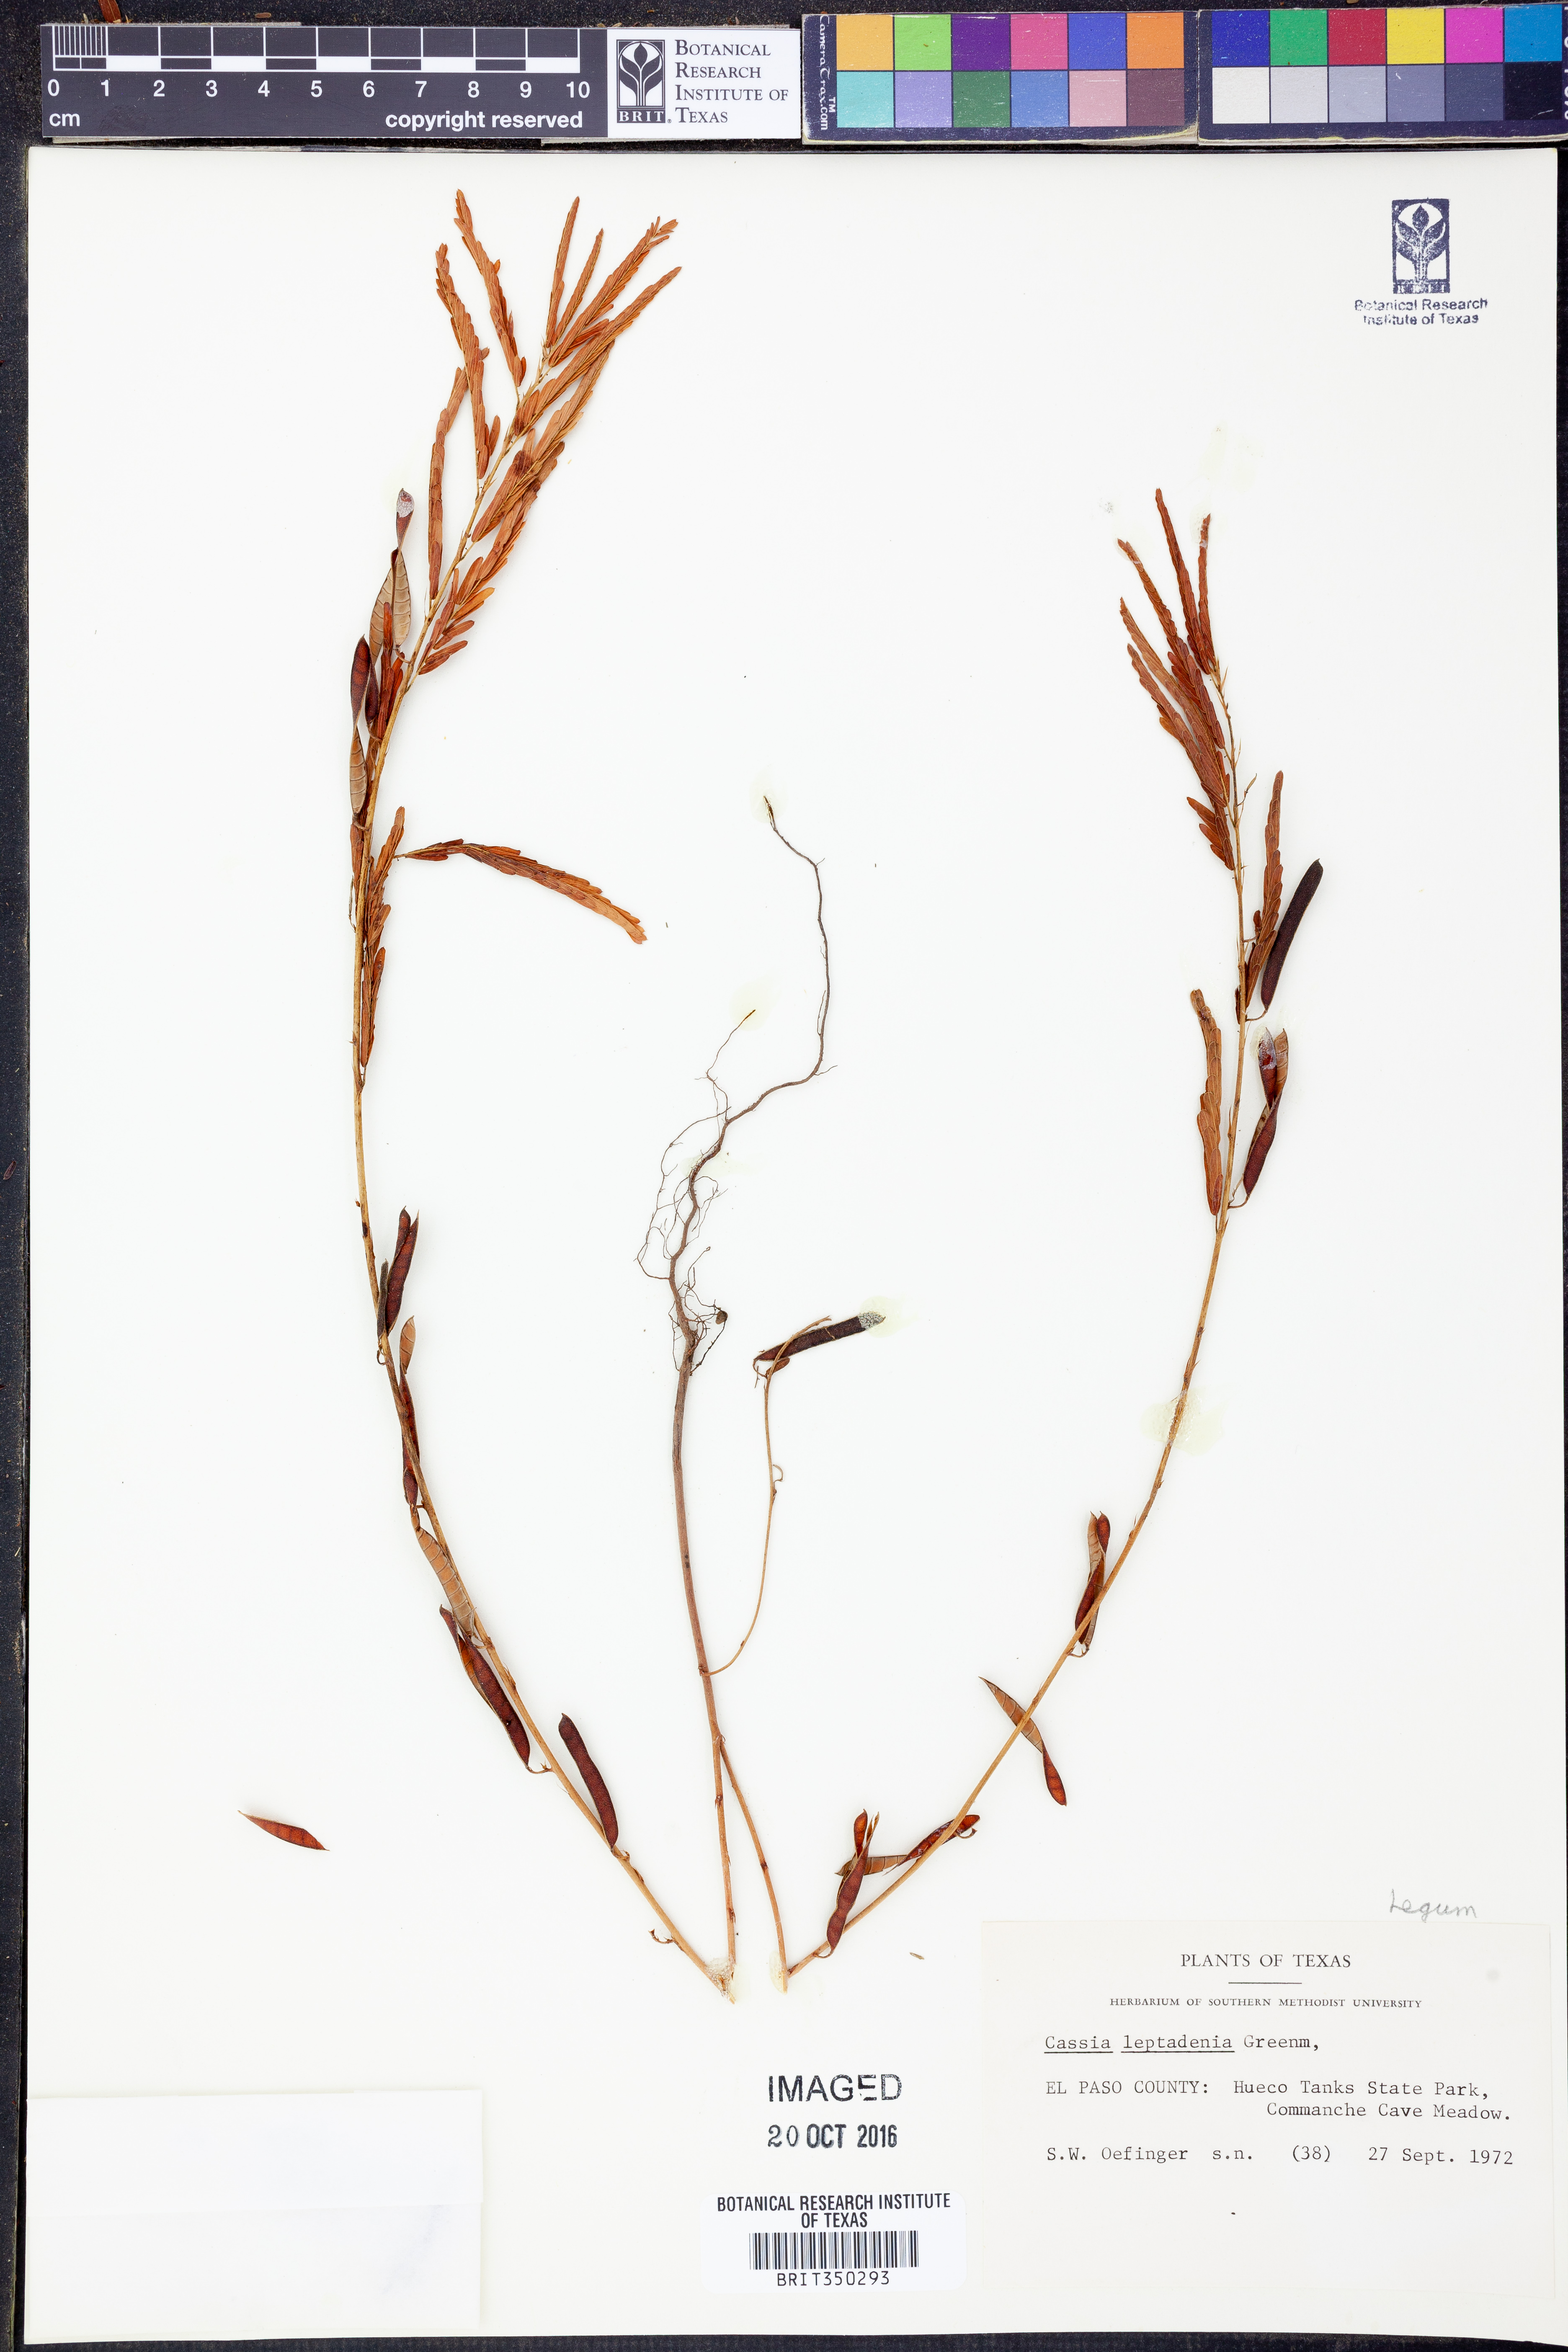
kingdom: Plantae
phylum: Tracheophyta
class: Magnoliopsida
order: Fabales
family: Fabaceae
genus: Chamaecrista
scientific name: Chamaecrista nictitans
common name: Sensitive cassia
